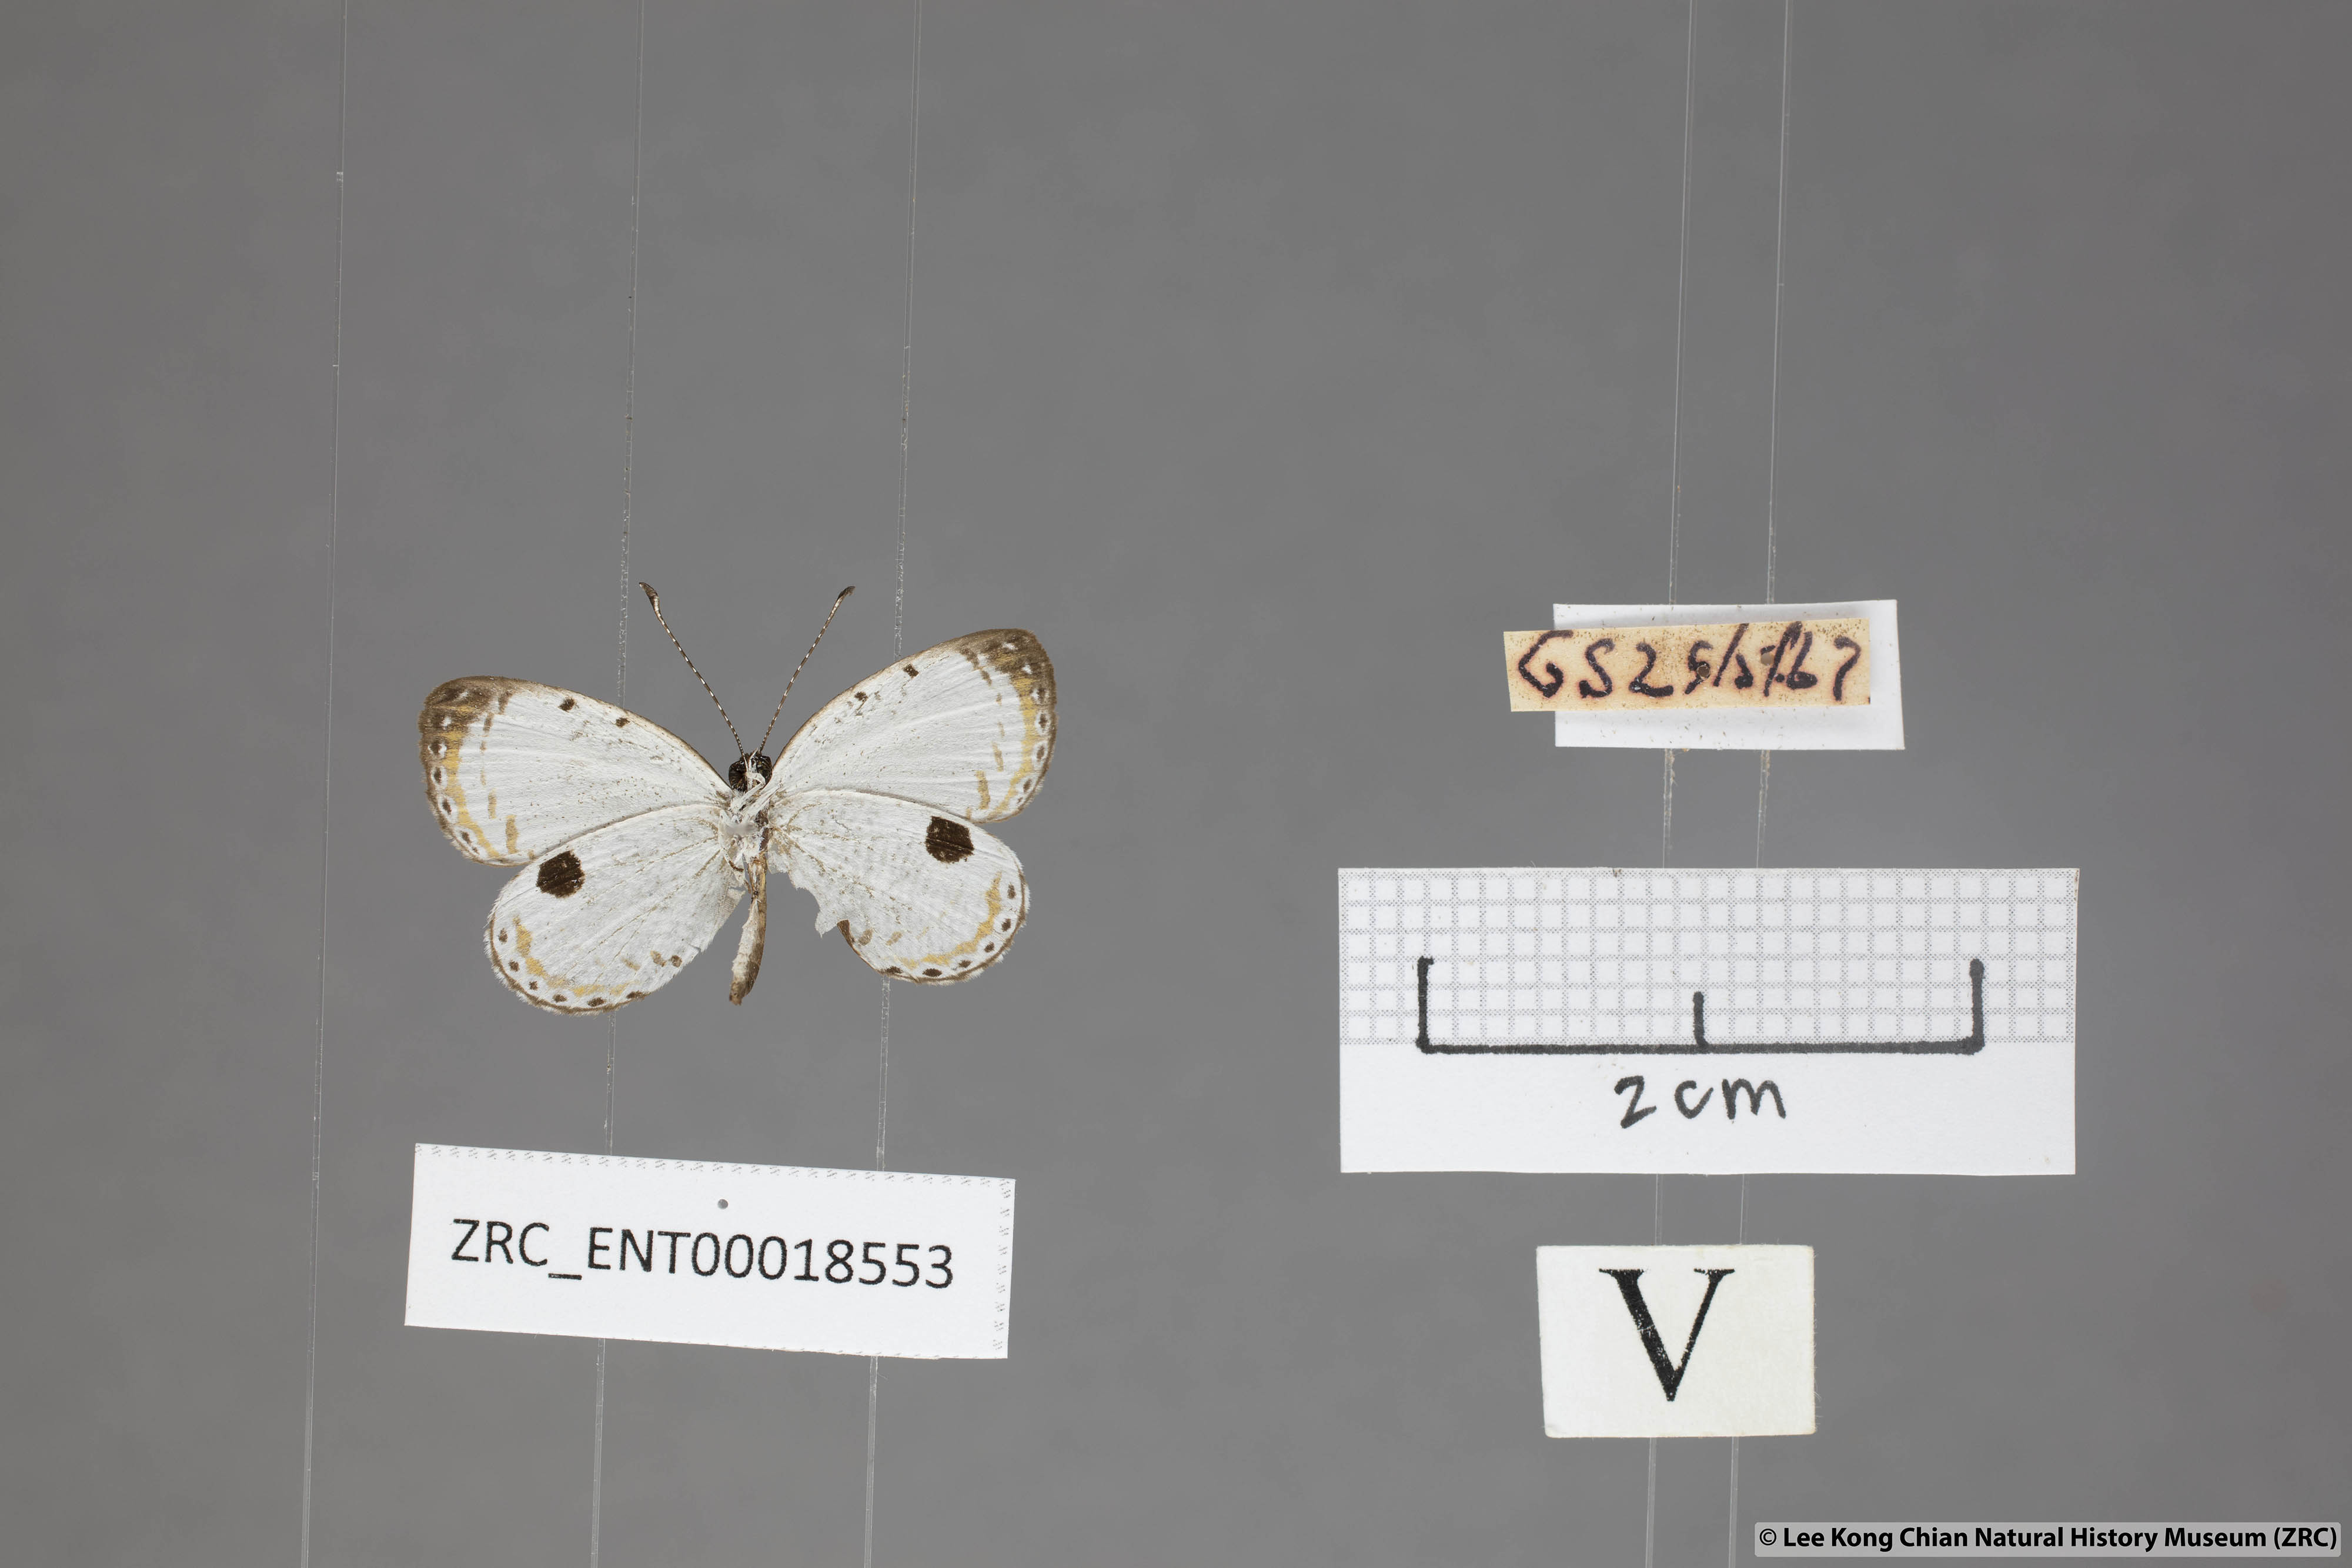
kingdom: Animalia
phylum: Arthropoda
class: Insecta
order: Lepidoptera
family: Lycaenidae
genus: Pithecops
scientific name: Pithecops corvus
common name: Forest quaker
